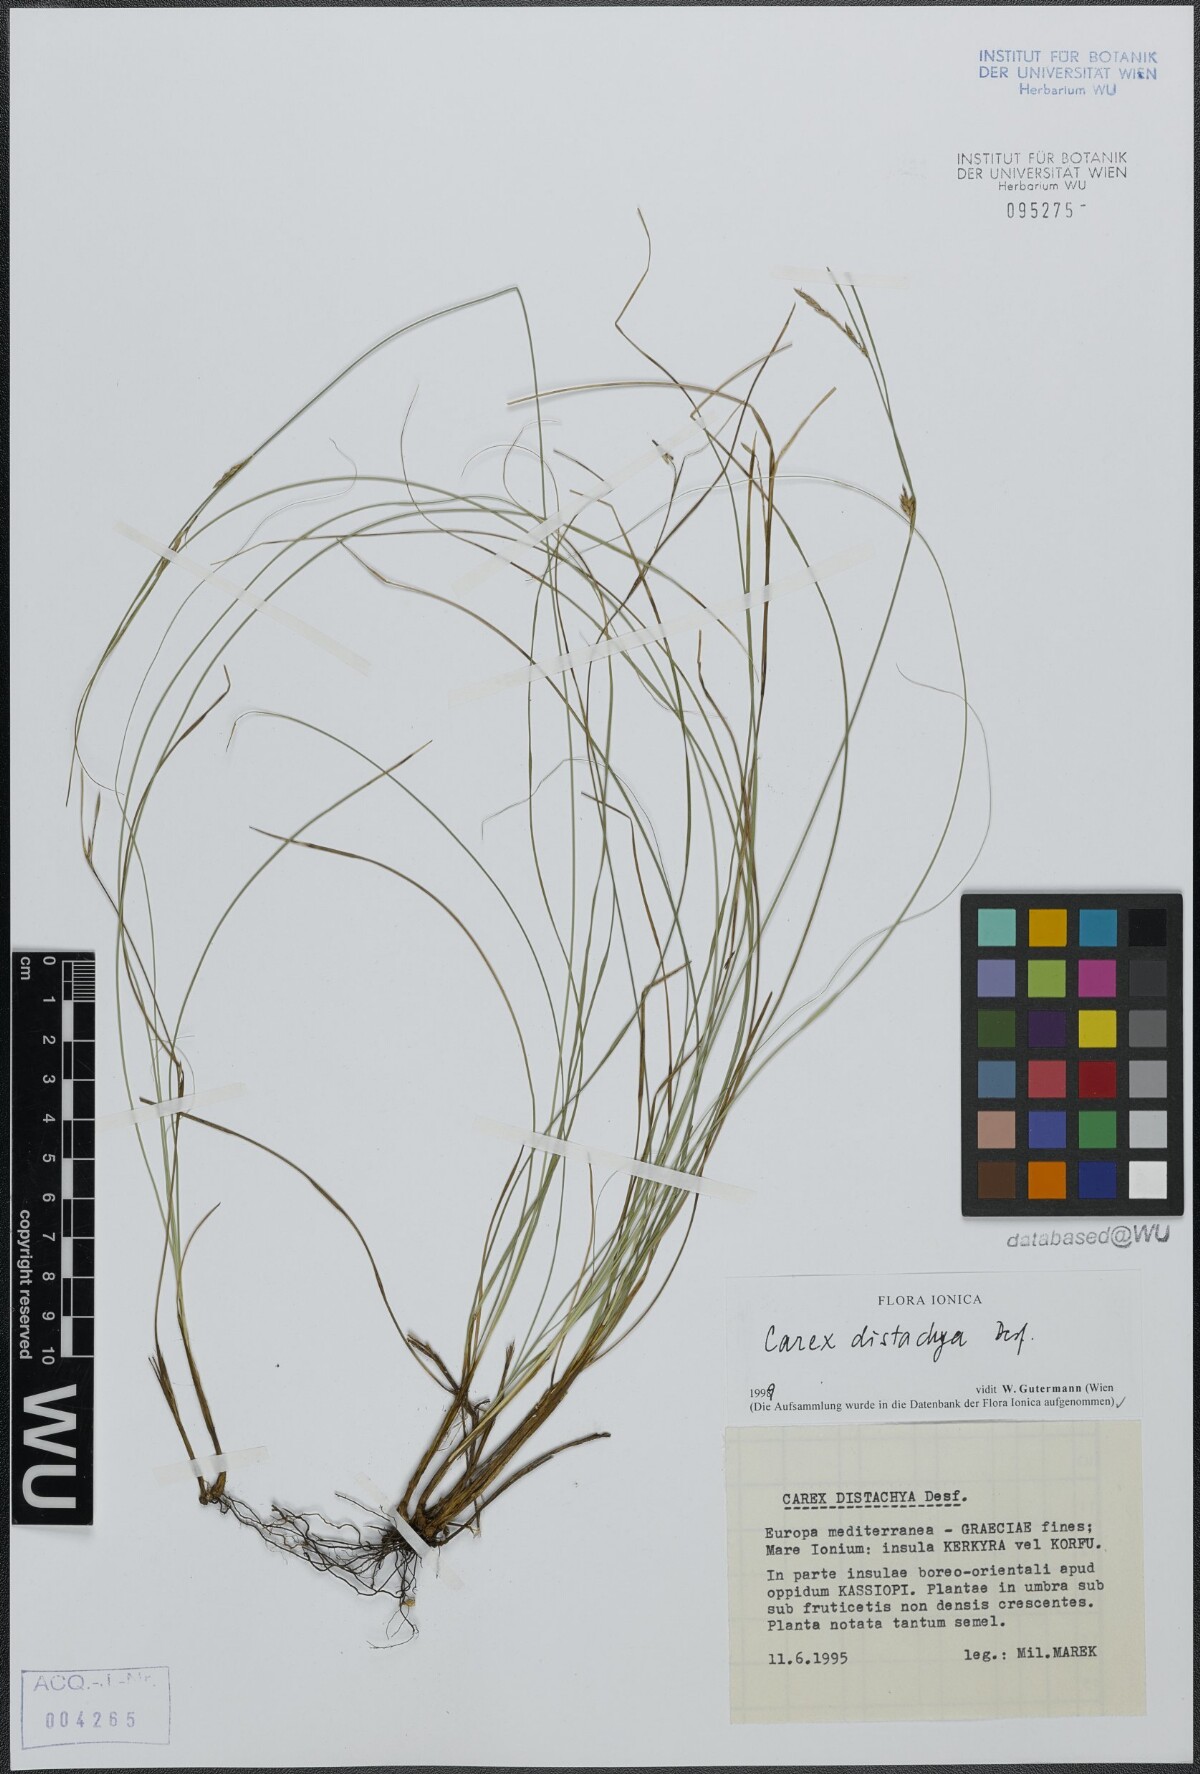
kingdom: Plantae
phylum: Tracheophyta
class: Liliopsida
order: Poales
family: Cyperaceae
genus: Carex
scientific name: Carex distachya
